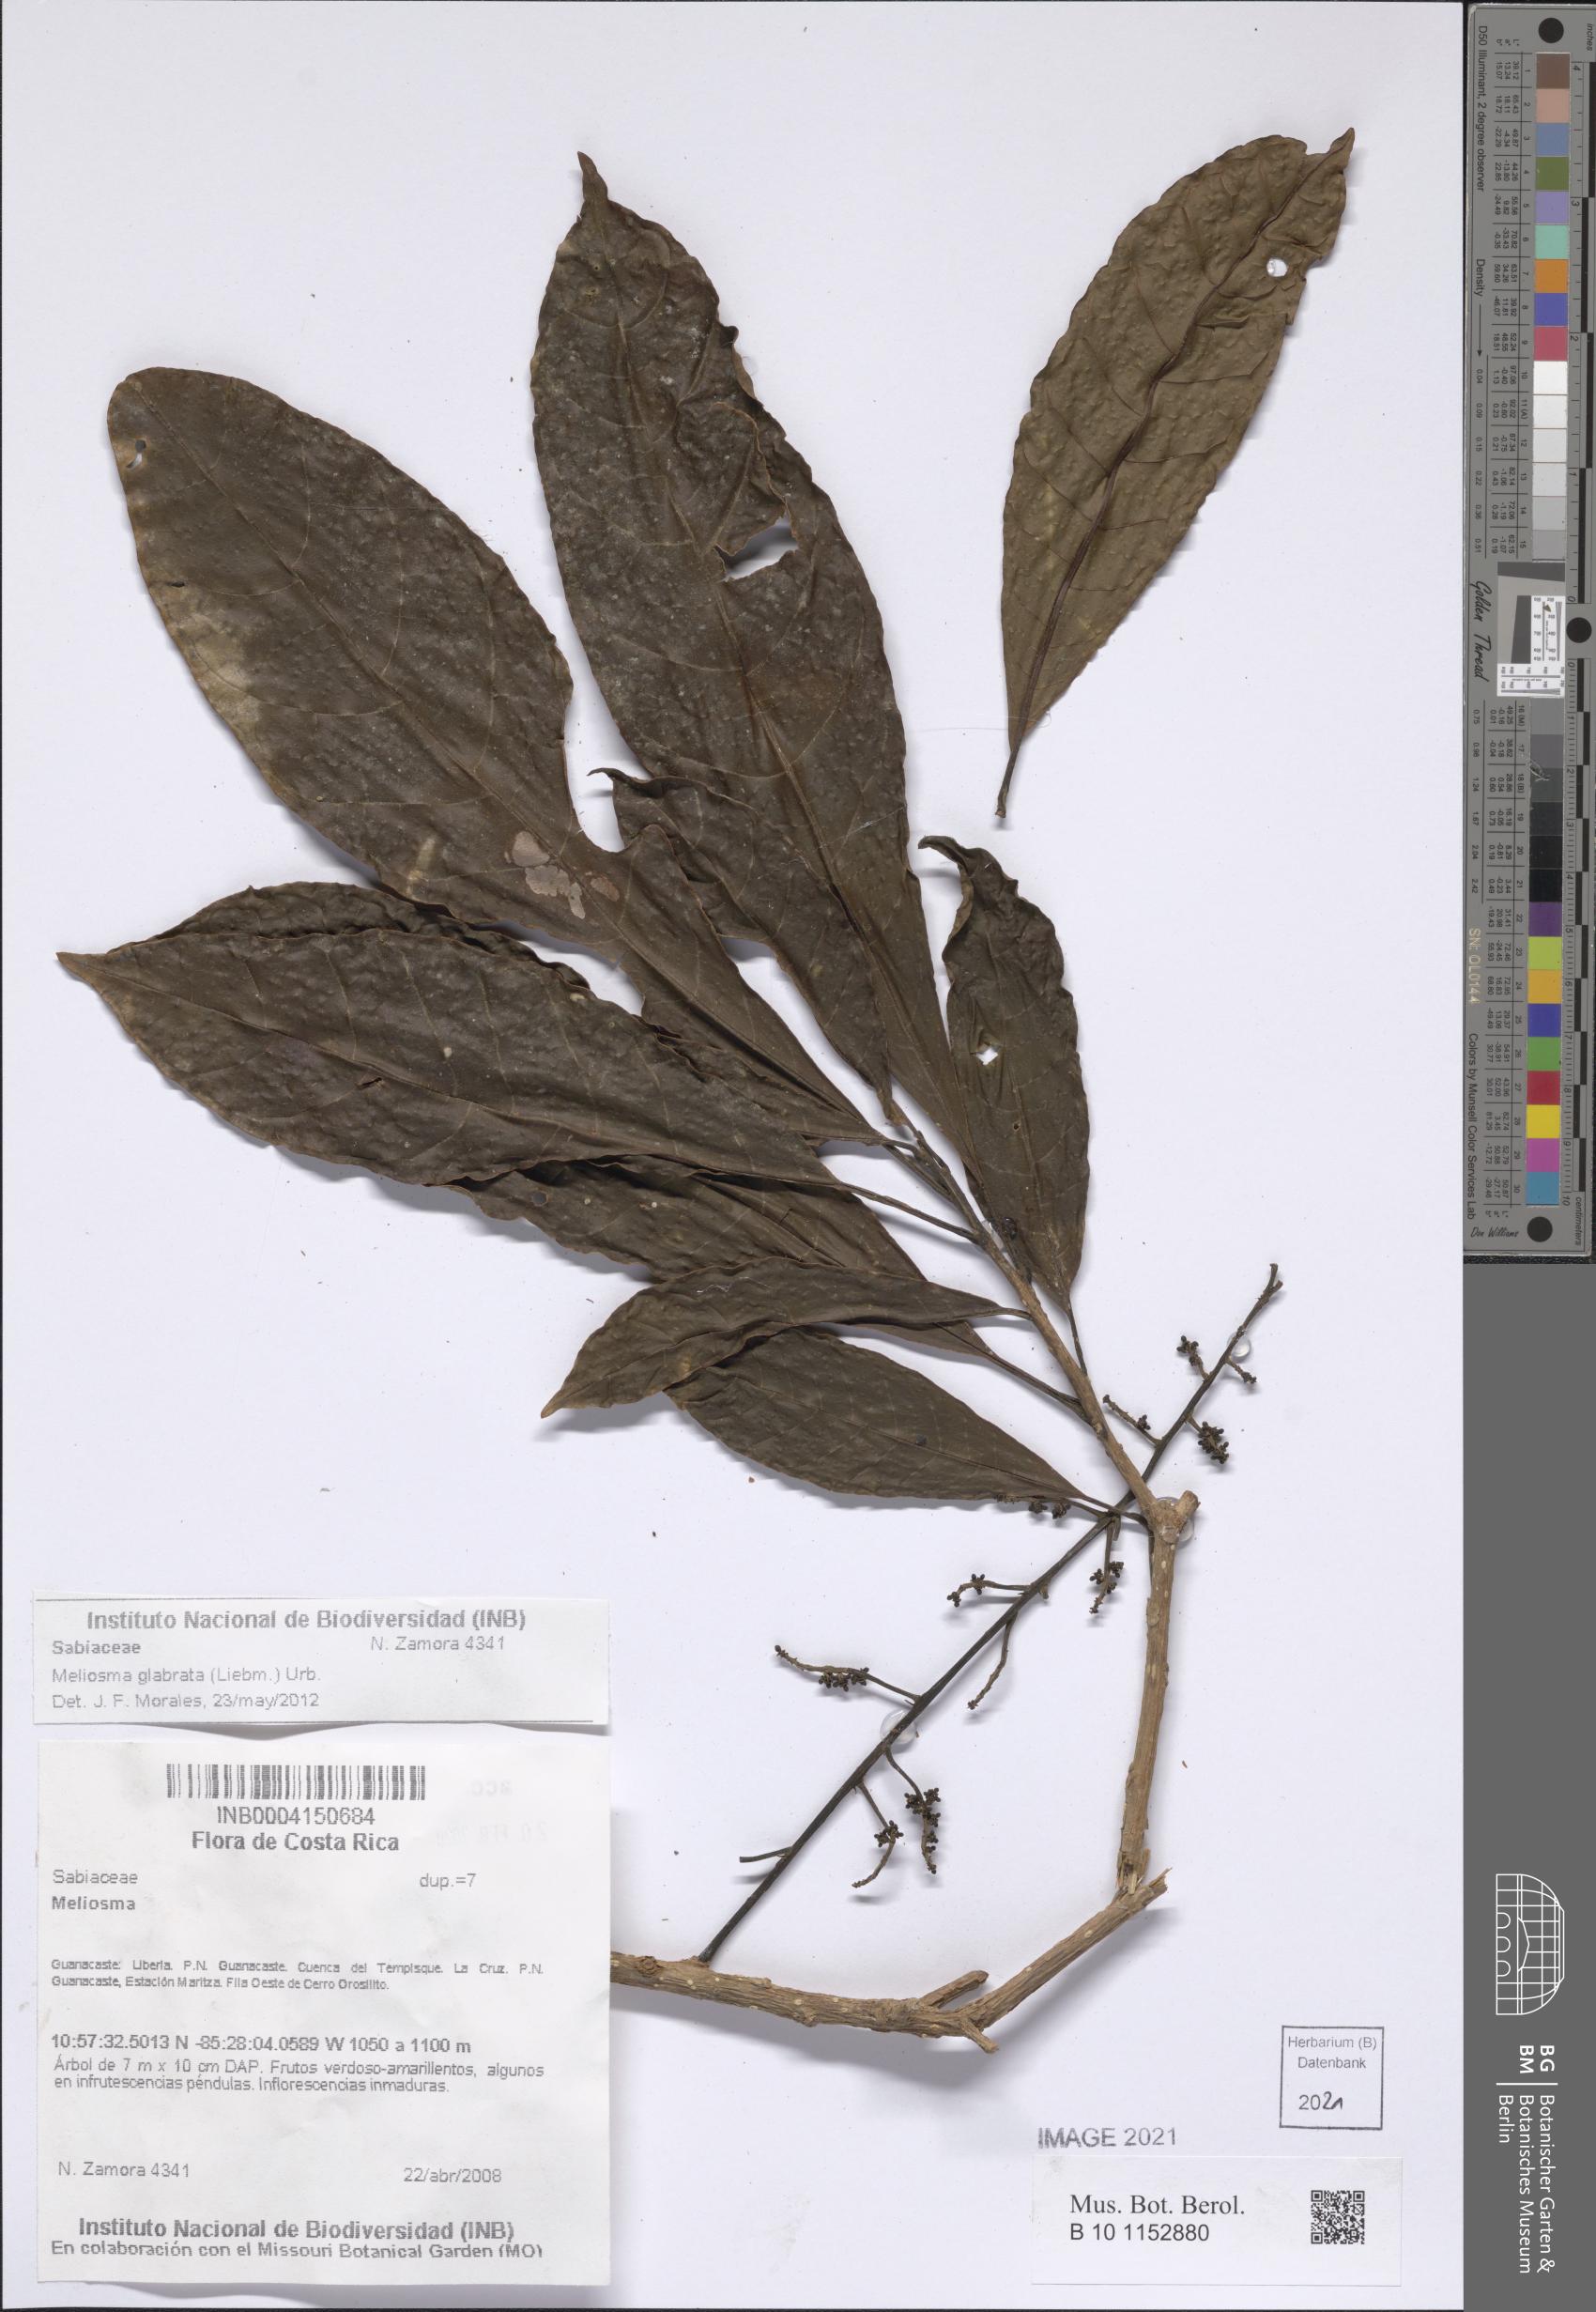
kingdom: Plantae
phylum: Tracheophyta
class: Magnoliopsida
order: Proteales
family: Sabiaceae
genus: Meliosma
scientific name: Meliosma glabrata
